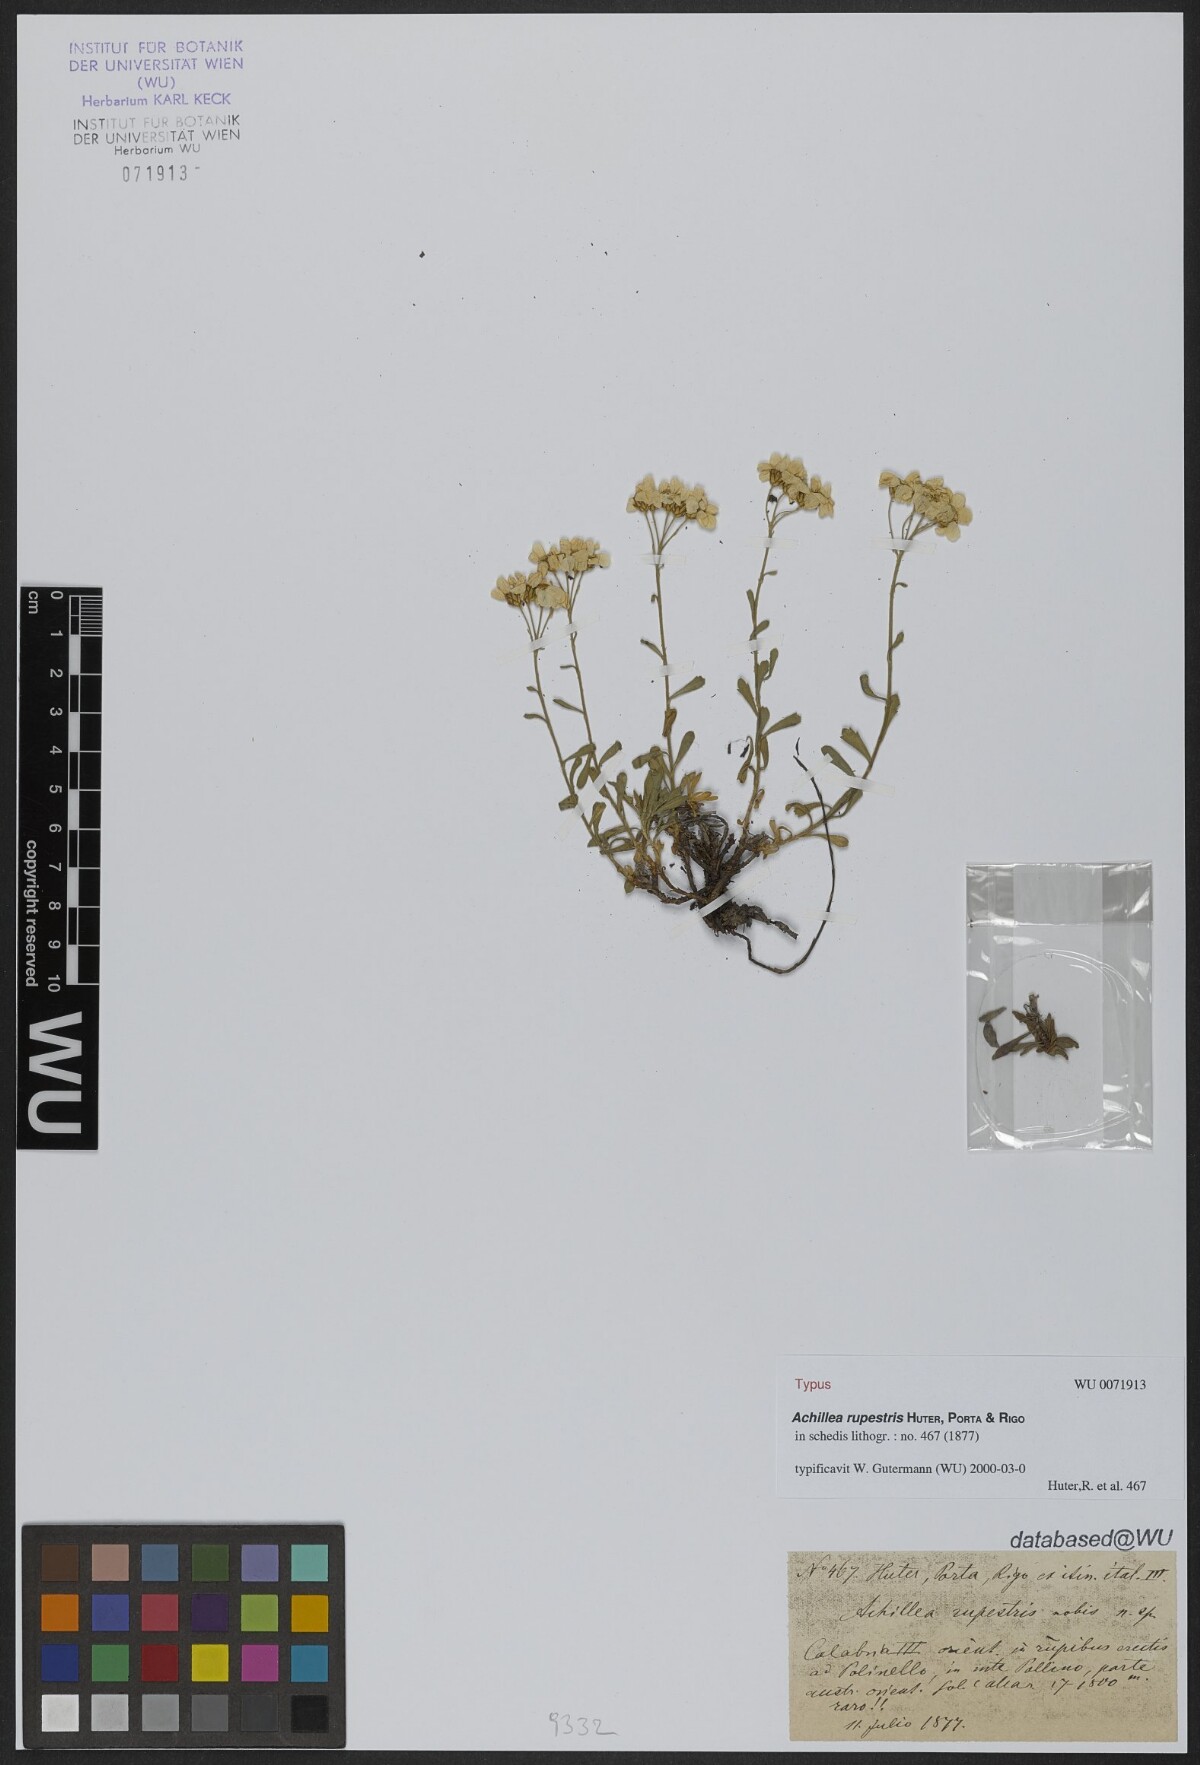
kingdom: Plantae
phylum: Tracheophyta
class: Magnoliopsida
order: Asterales
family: Asteraceae
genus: Achillea
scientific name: Achillea rupestris
